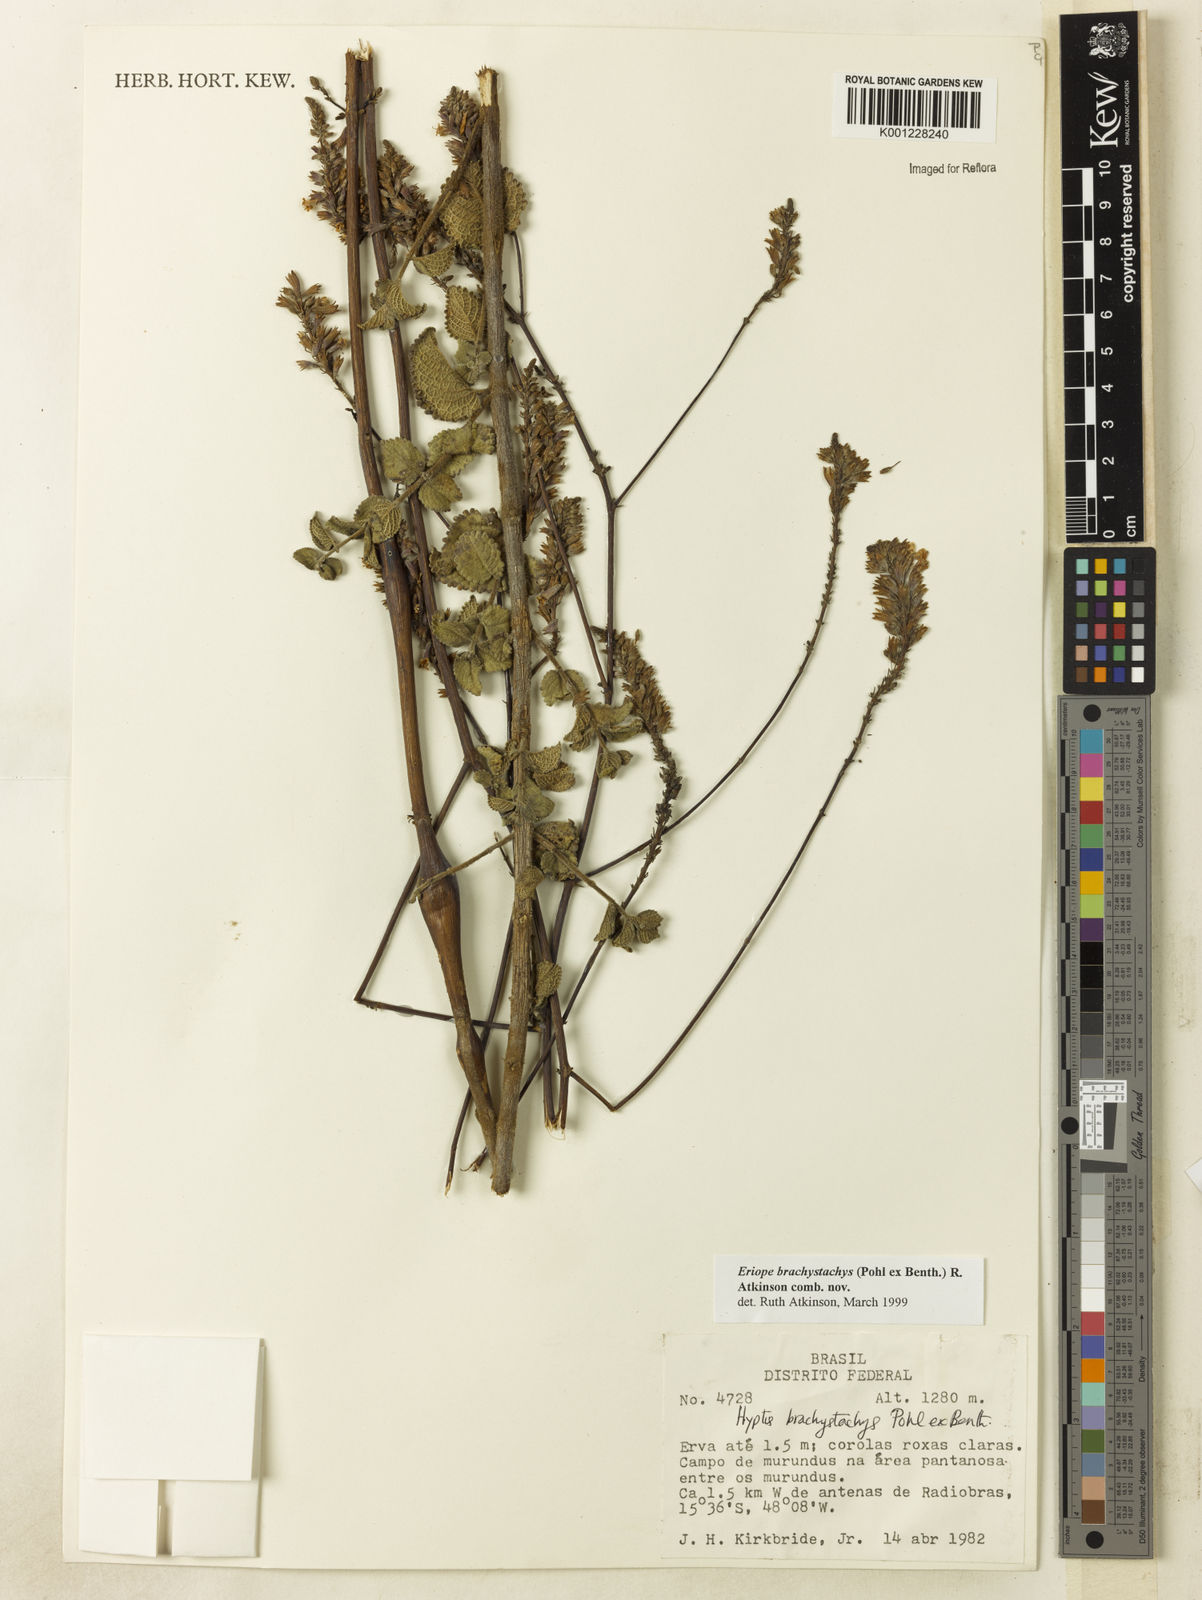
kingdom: Plantae
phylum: Tracheophyta
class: Magnoliopsida
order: Lamiales
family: Lamiaceae
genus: Hypenia
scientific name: Hypenia brachystachys
